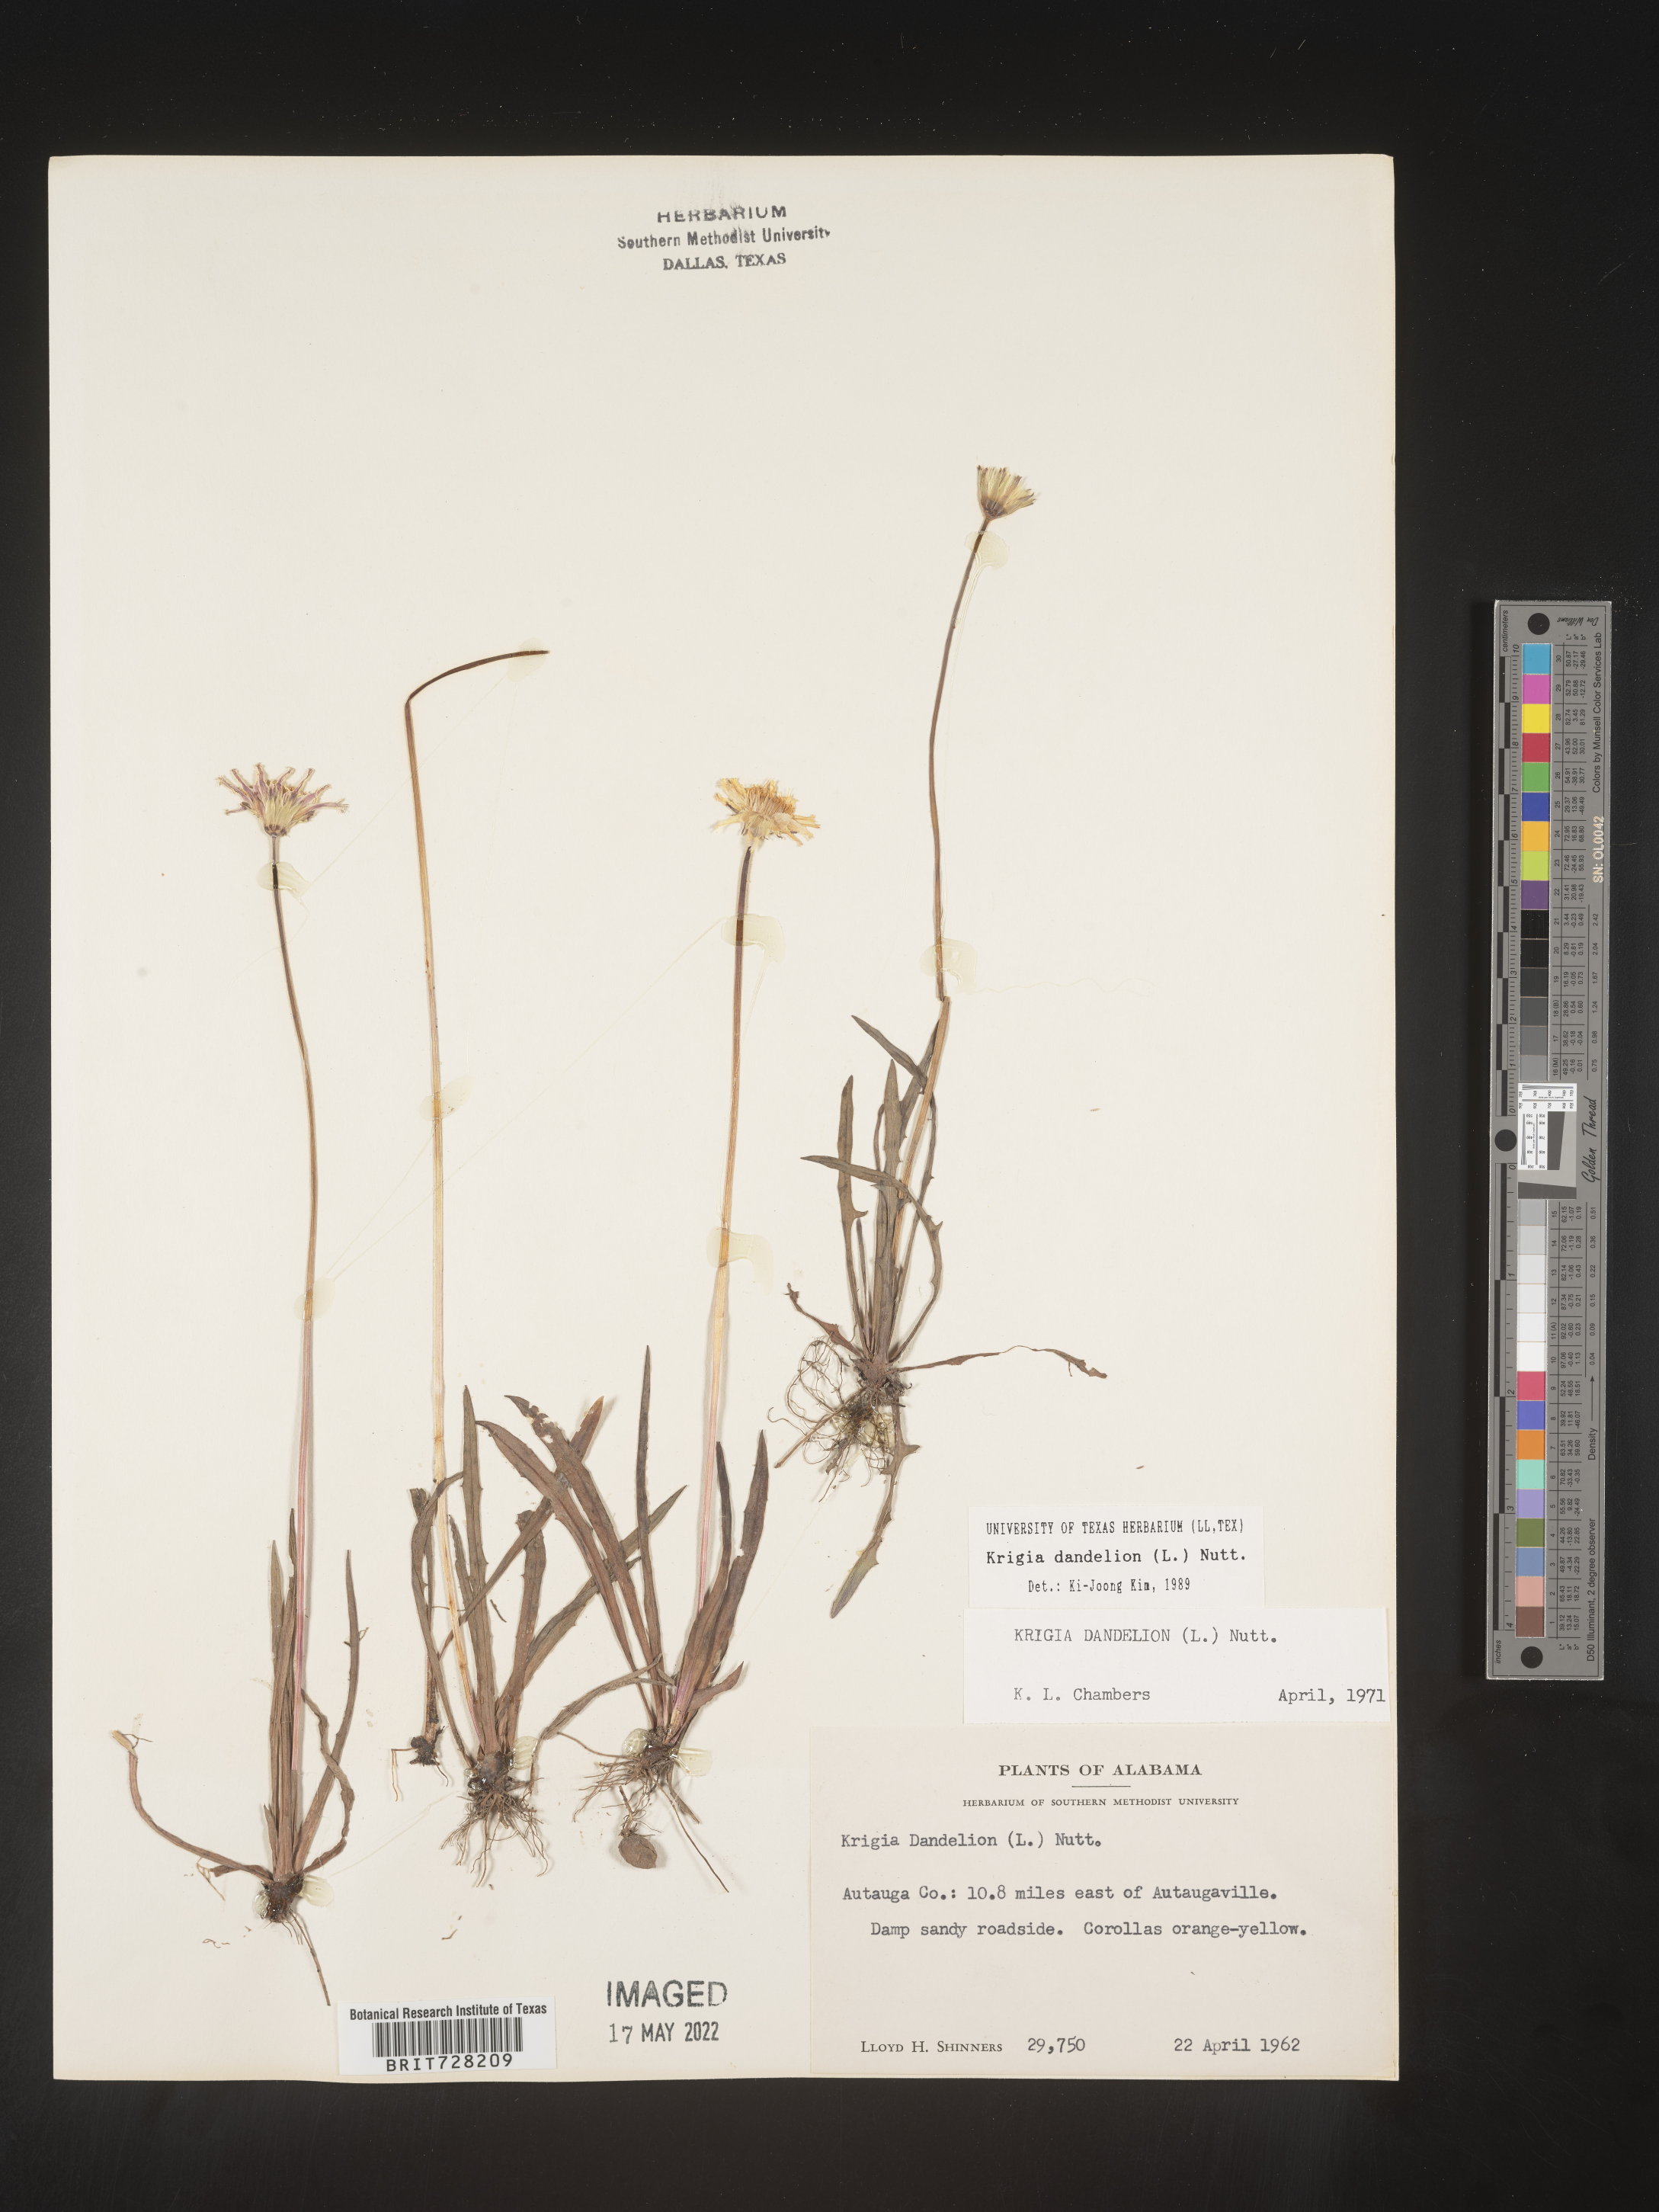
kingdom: Plantae
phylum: Tracheophyta
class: Magnoliopsida
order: Asterales
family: Asteraceae
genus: Krigia
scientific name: Krigia dandelion
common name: Colonial dwarf-dandelion
